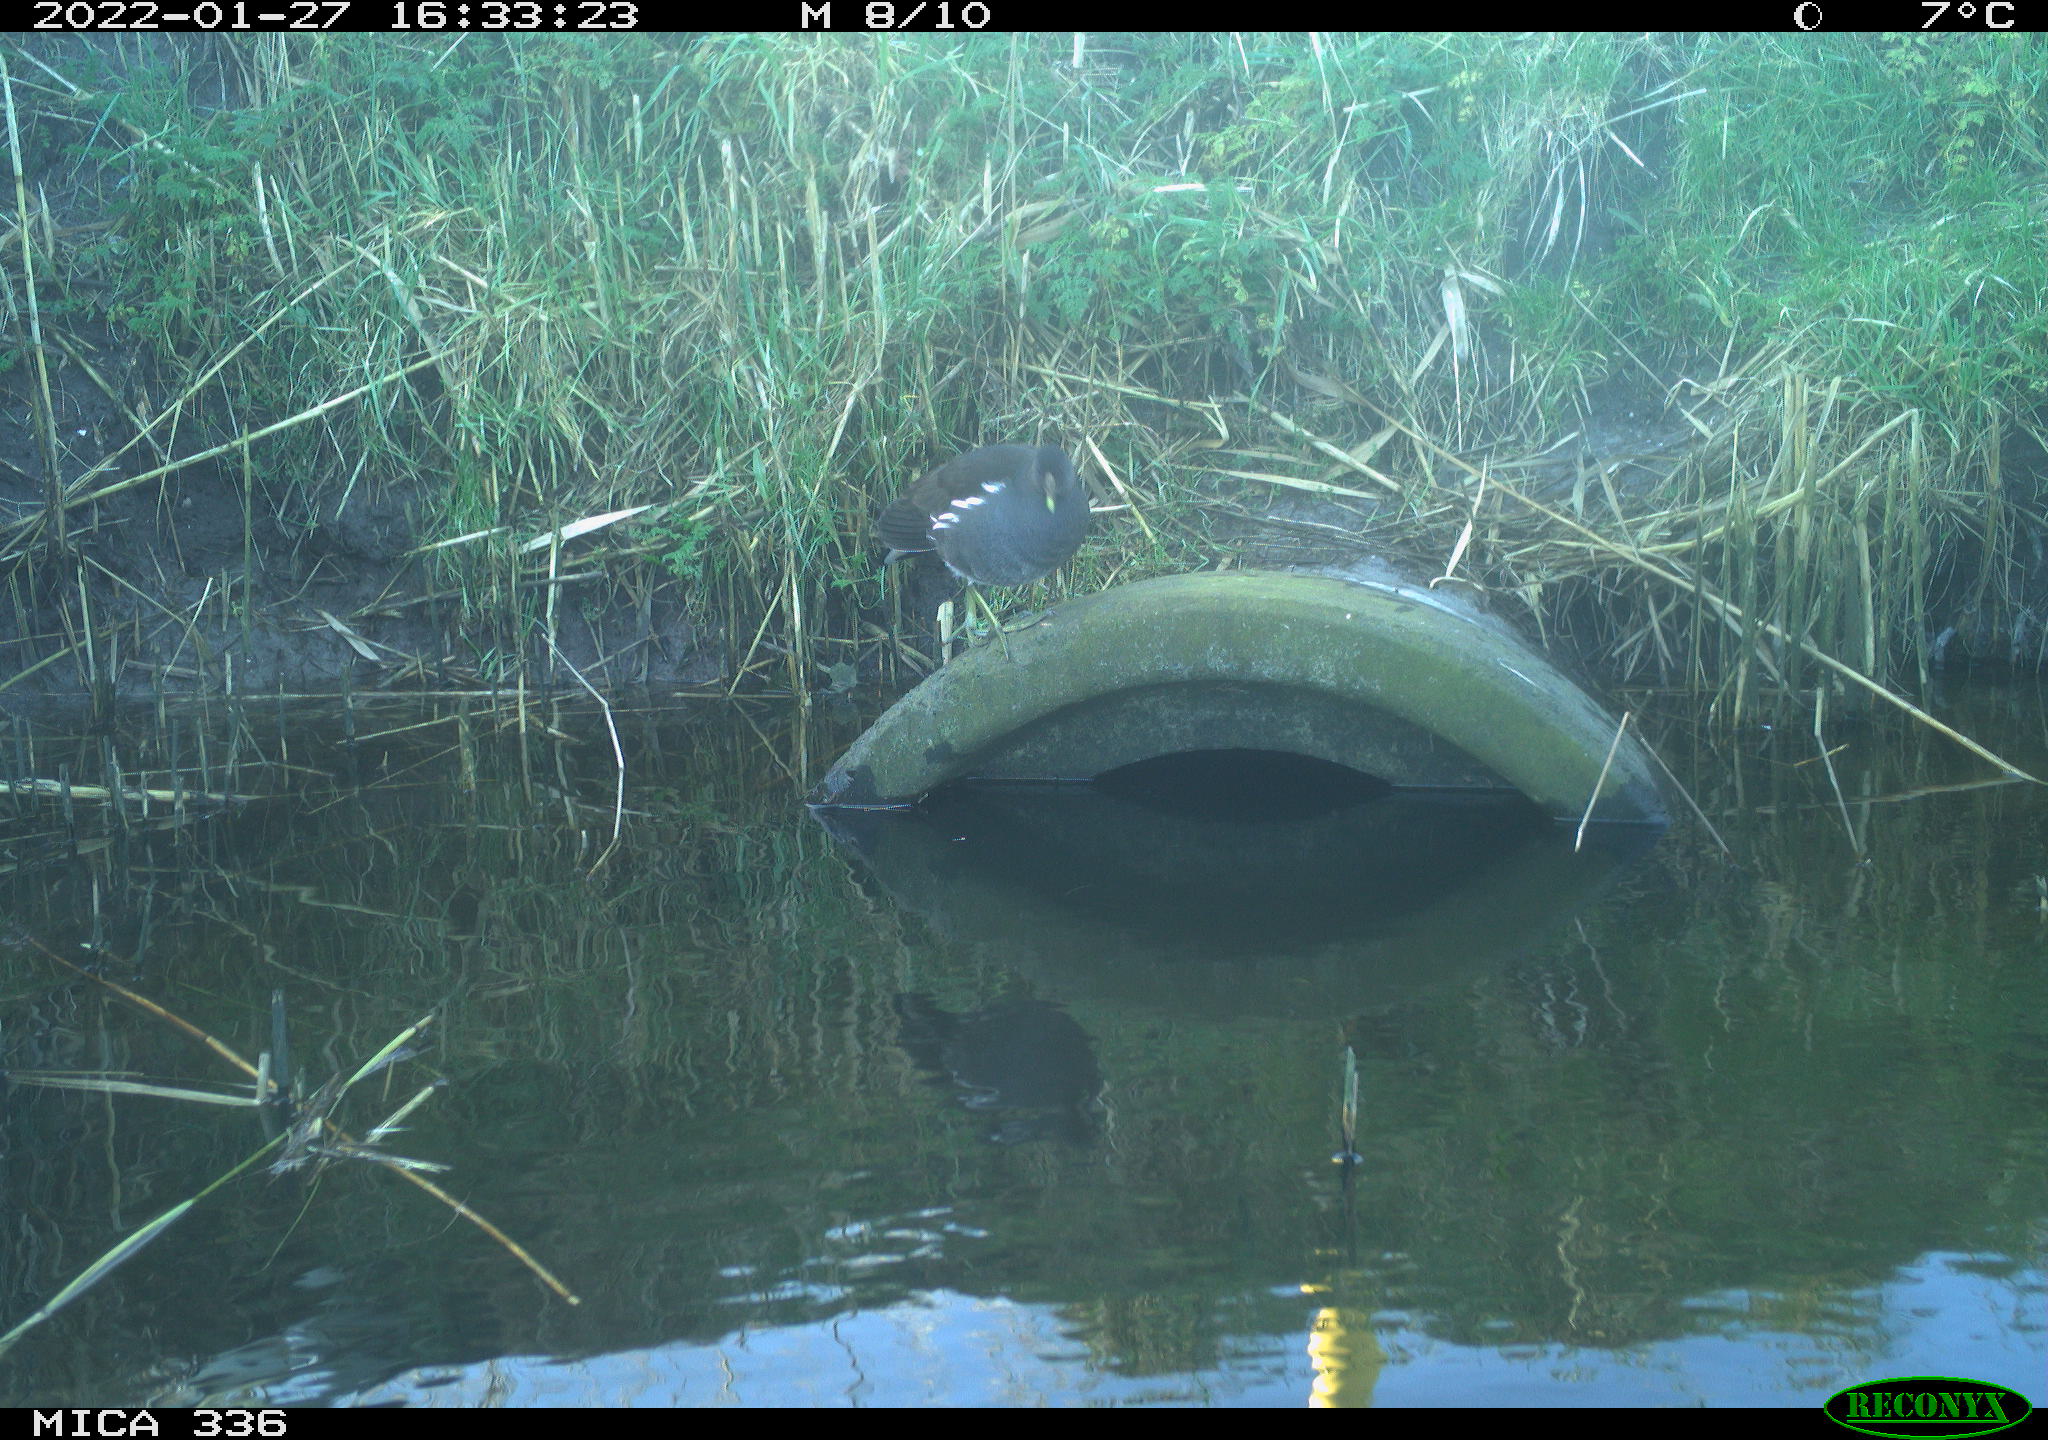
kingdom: Animalia
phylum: Chordata
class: Aves
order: Gruiformes
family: Rallidae
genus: Gallinula
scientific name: Gallinula chloropus
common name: Common moorhen
